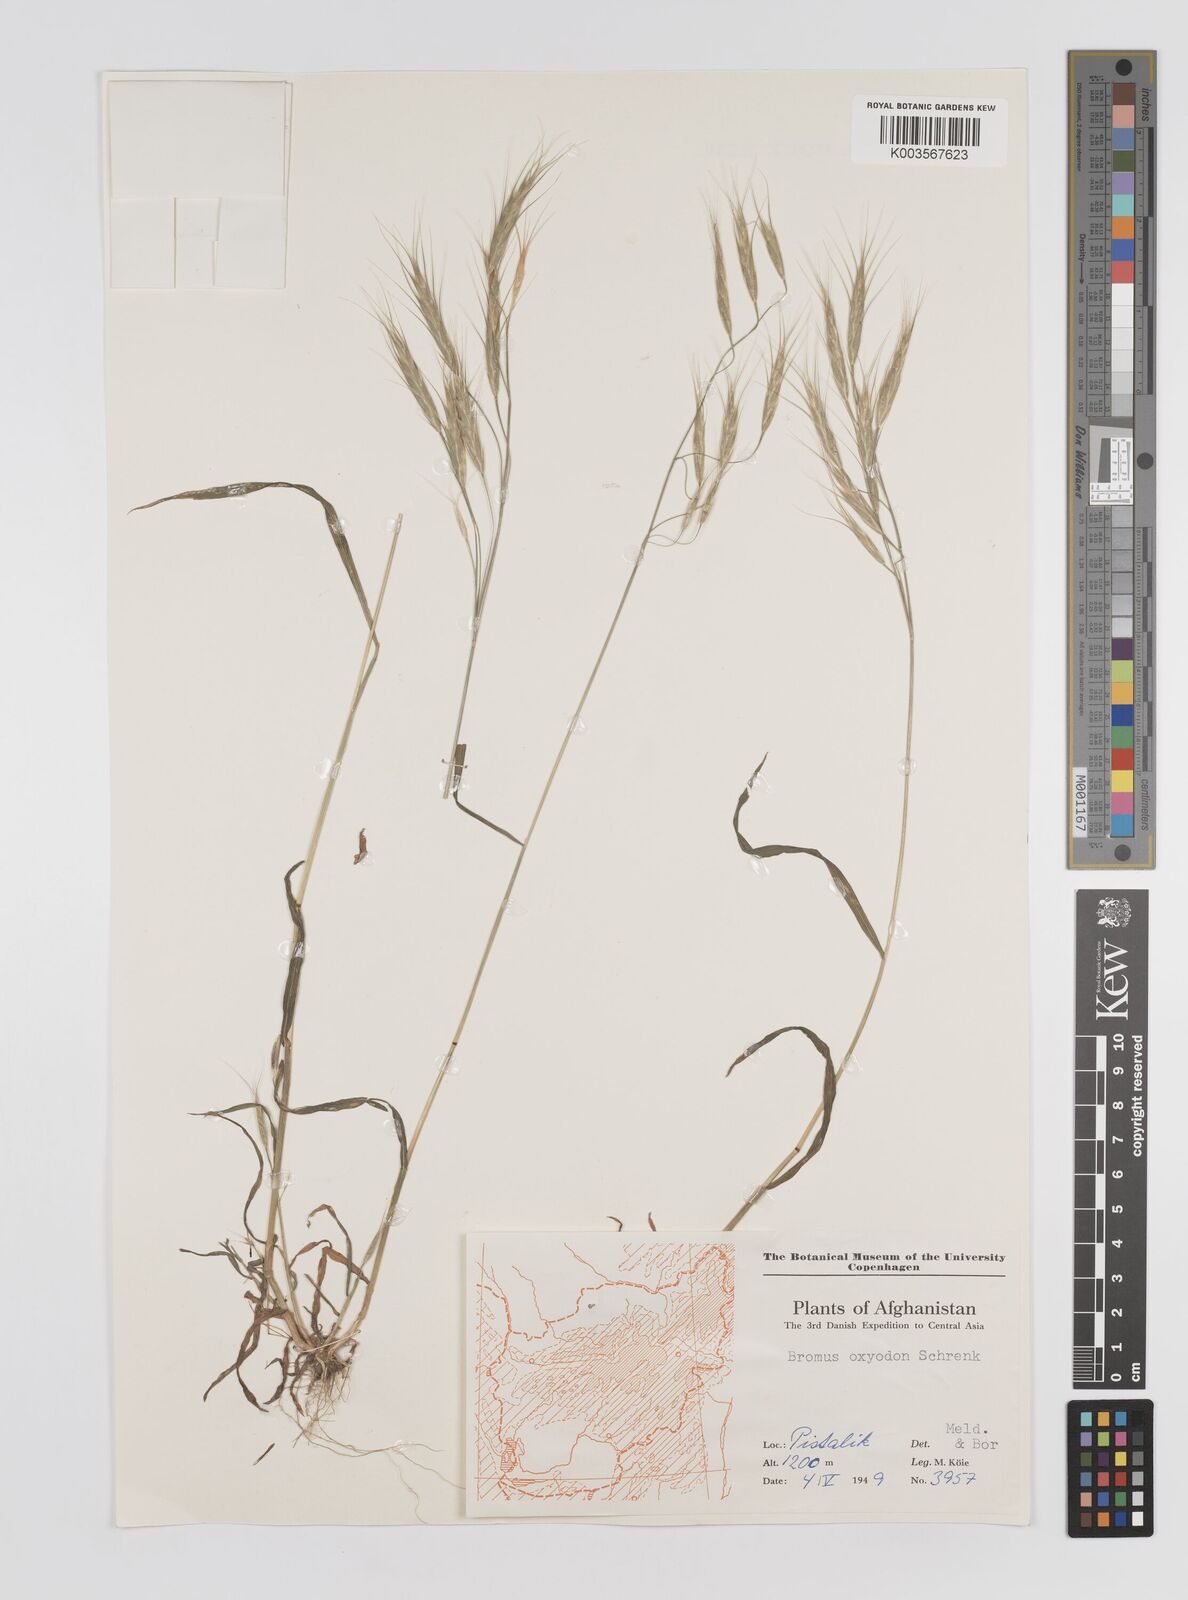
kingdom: Plantae
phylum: Tracheophyta
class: Liliopsida
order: Poales
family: Poaceae
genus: Bromus
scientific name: Bromus oxyodon
